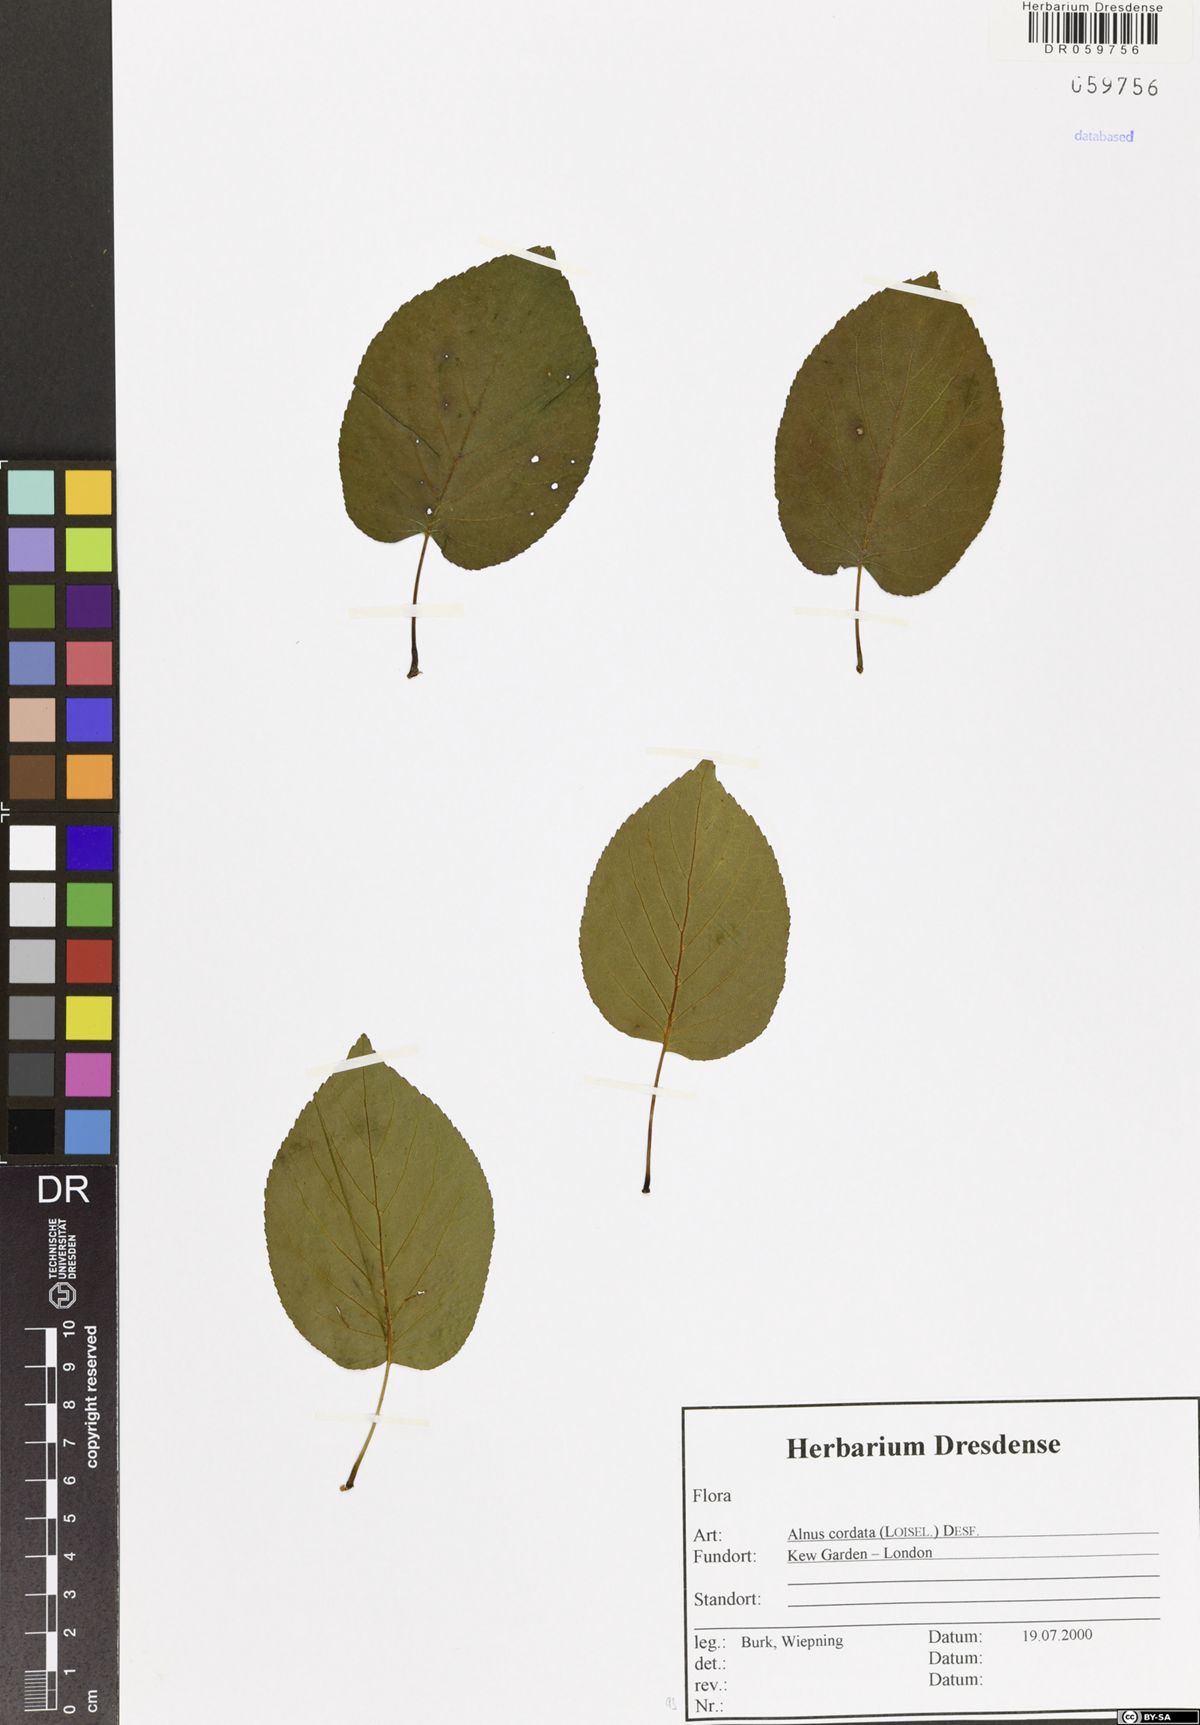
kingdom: Plantae
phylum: Tracheophyta
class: Magnoliopsida
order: Fagales
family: Betulaceae
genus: Alnus
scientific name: Alnus cordata
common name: Italian alder
